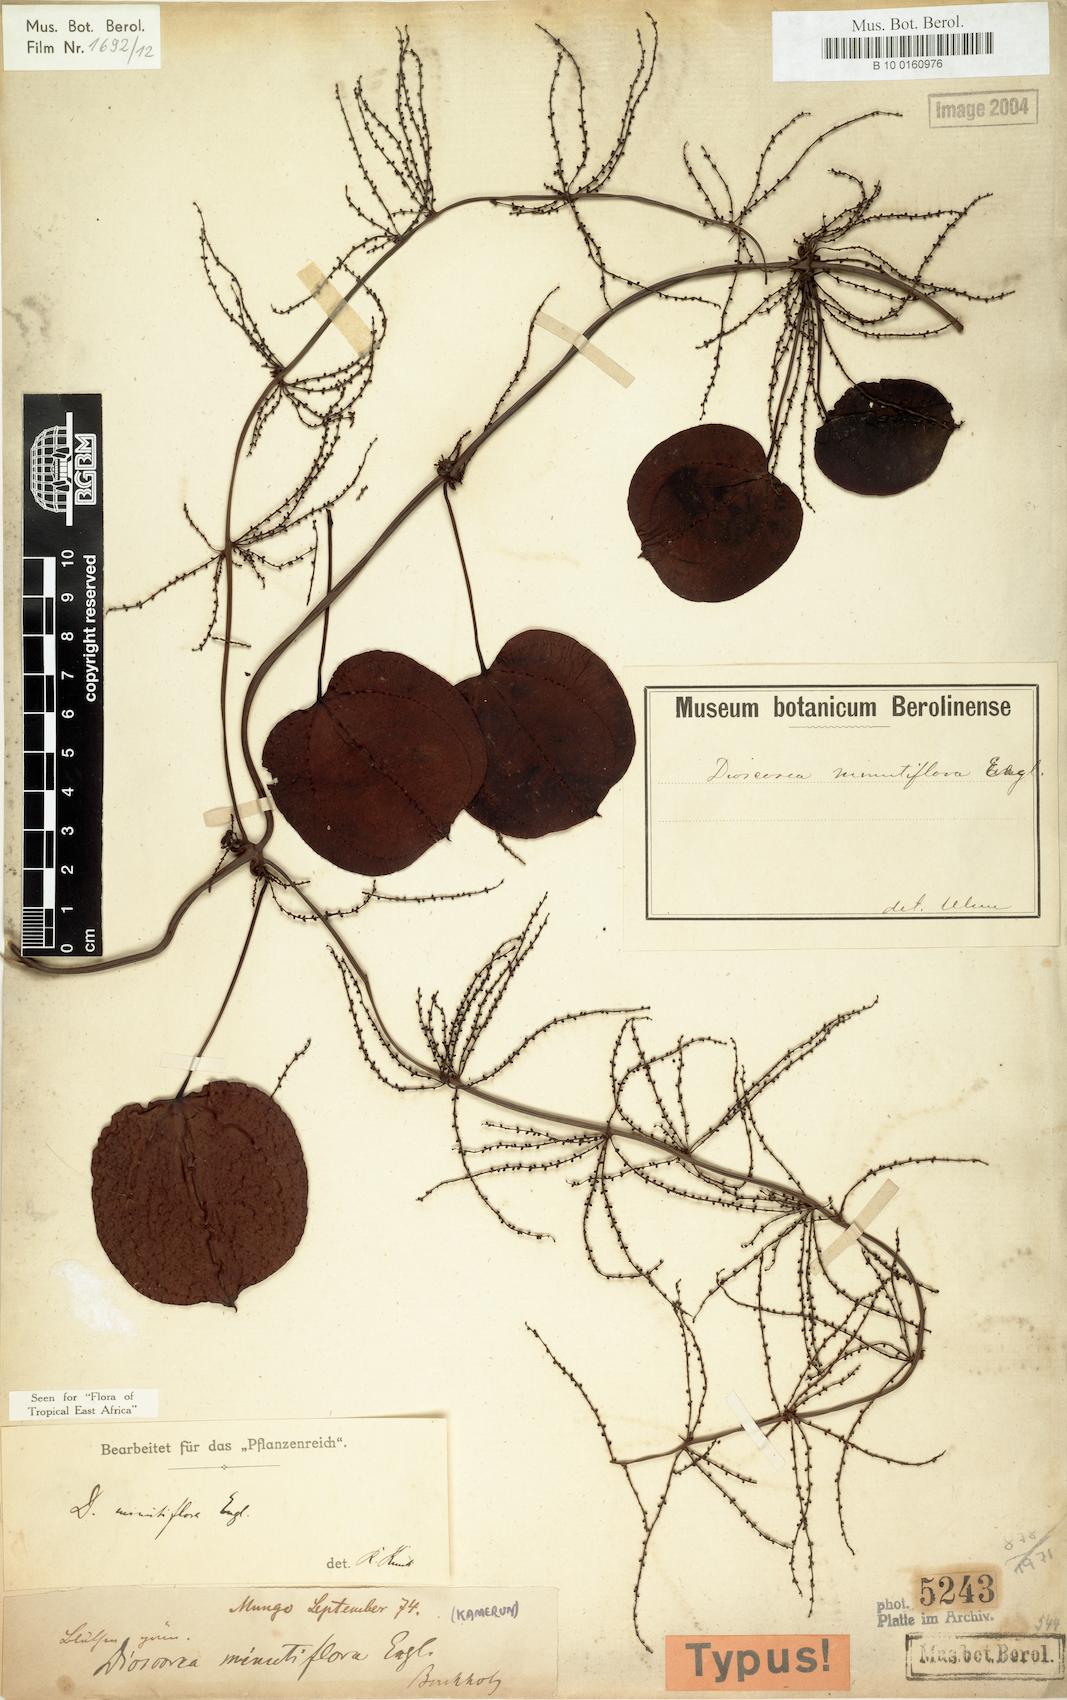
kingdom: Plantae
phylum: Tracheophyta
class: Liliopsida
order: Dioscoreales
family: Dioscoreaceae
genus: Dioscorea
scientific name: Dioscorea minutiflora
